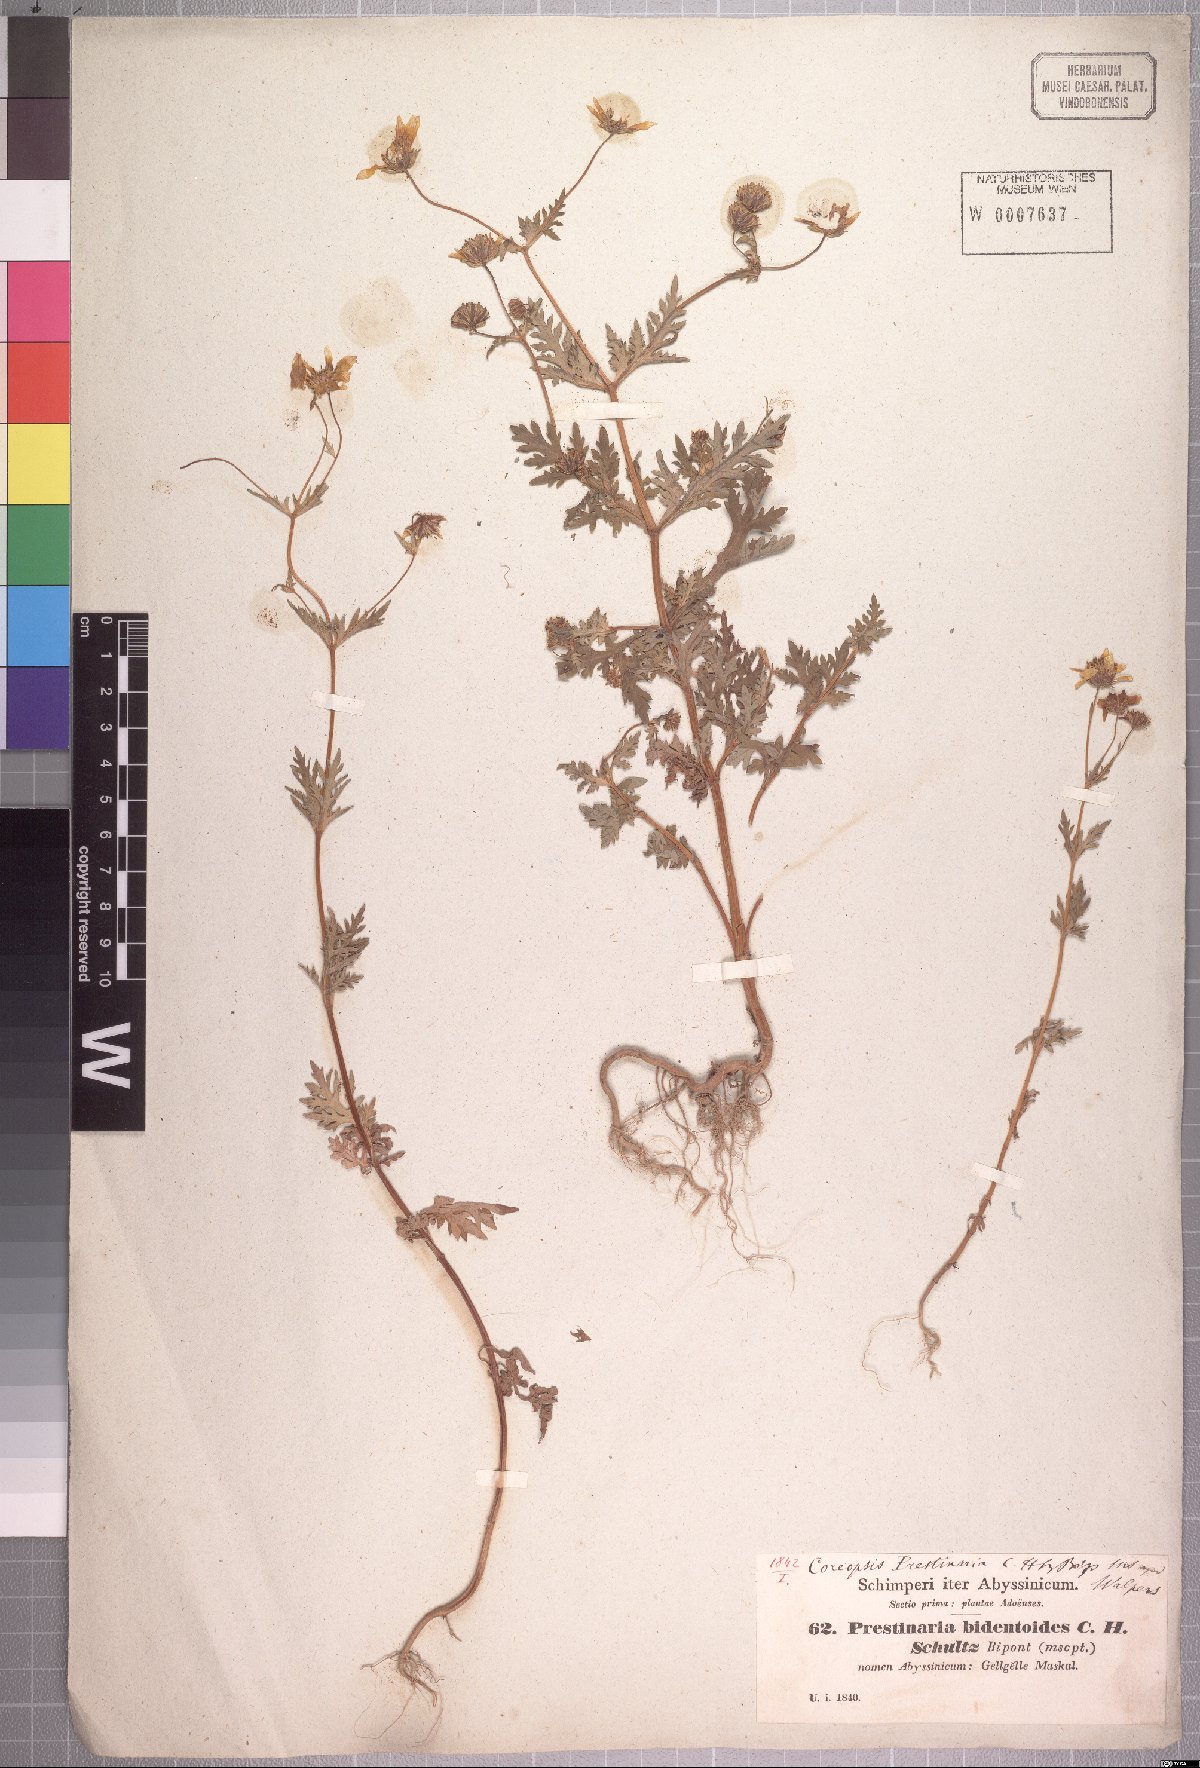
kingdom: Plantae
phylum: Tracheophyta
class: Magnoliopsida
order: Asterales
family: Asteraceae
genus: Bidens
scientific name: Bidens prestinaria
